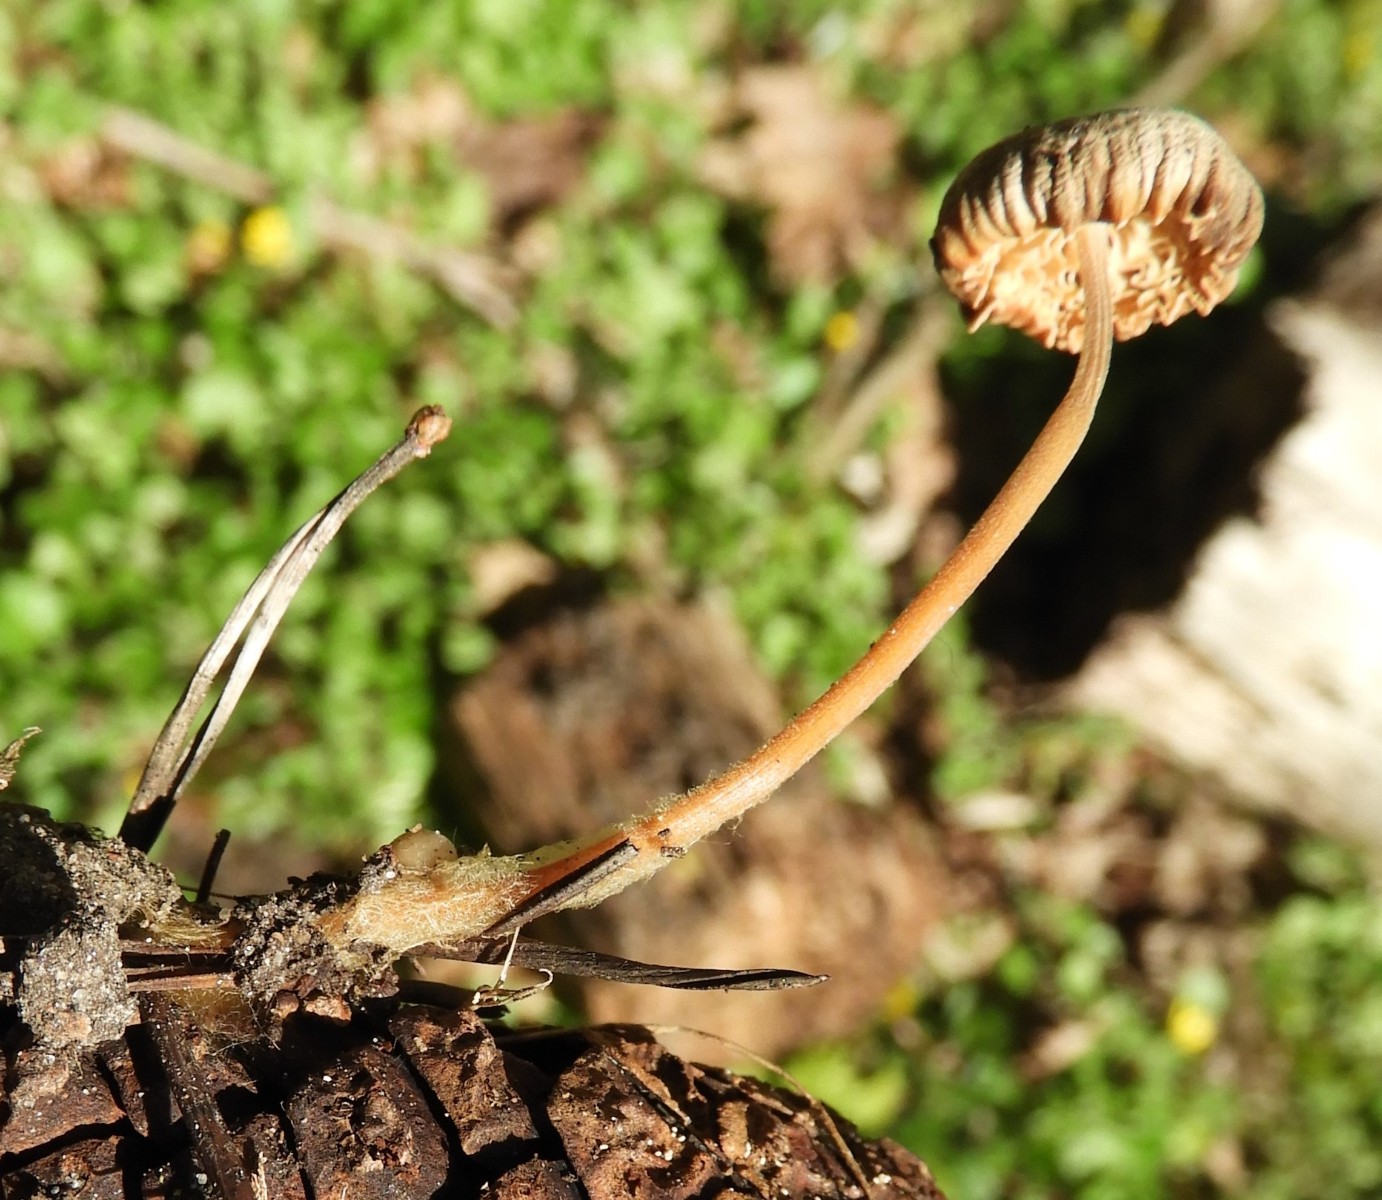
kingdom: Fungi
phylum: Basidiomycota
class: Agaricomycetes
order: Agaricales
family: Physalacriaceae
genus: Strobilurus
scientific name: Strobilurus esculentus
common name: gran-koglehat
